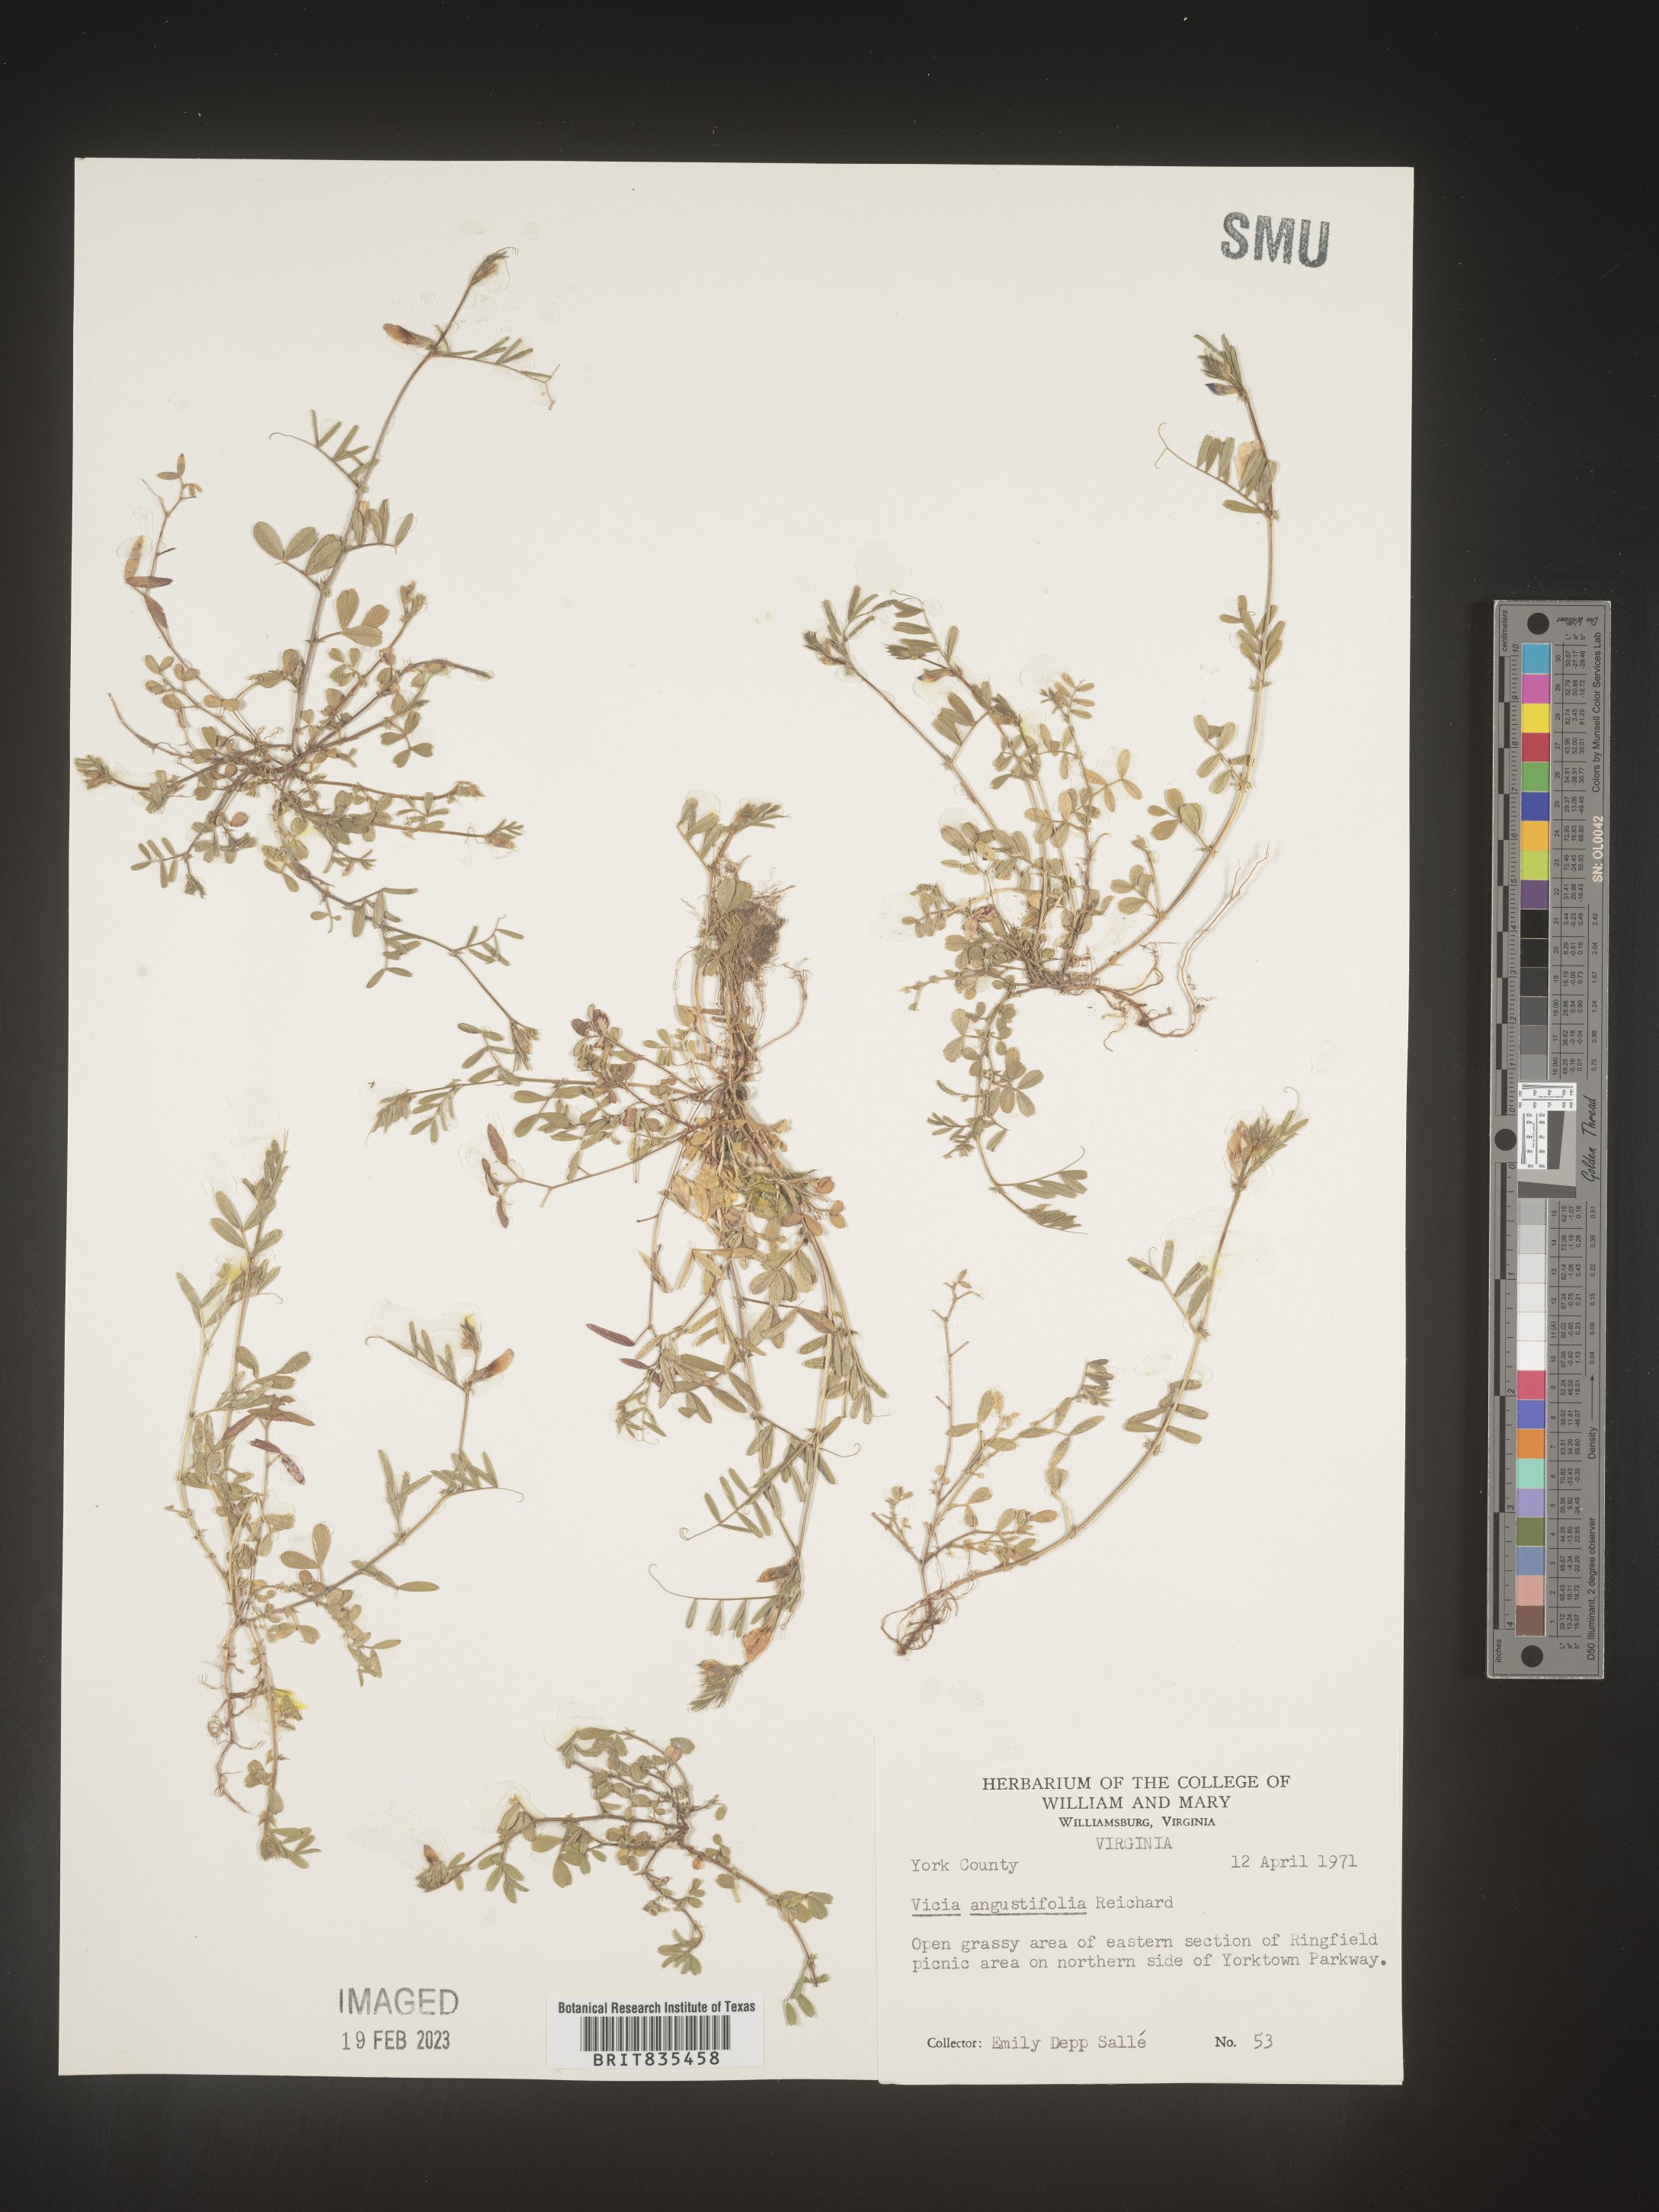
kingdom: Plantae
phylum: Tracheophyta
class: Magnoliopsida
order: Fabales
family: Fabaceae
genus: Vicia
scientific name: Vicia sativa
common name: Garden vetch
